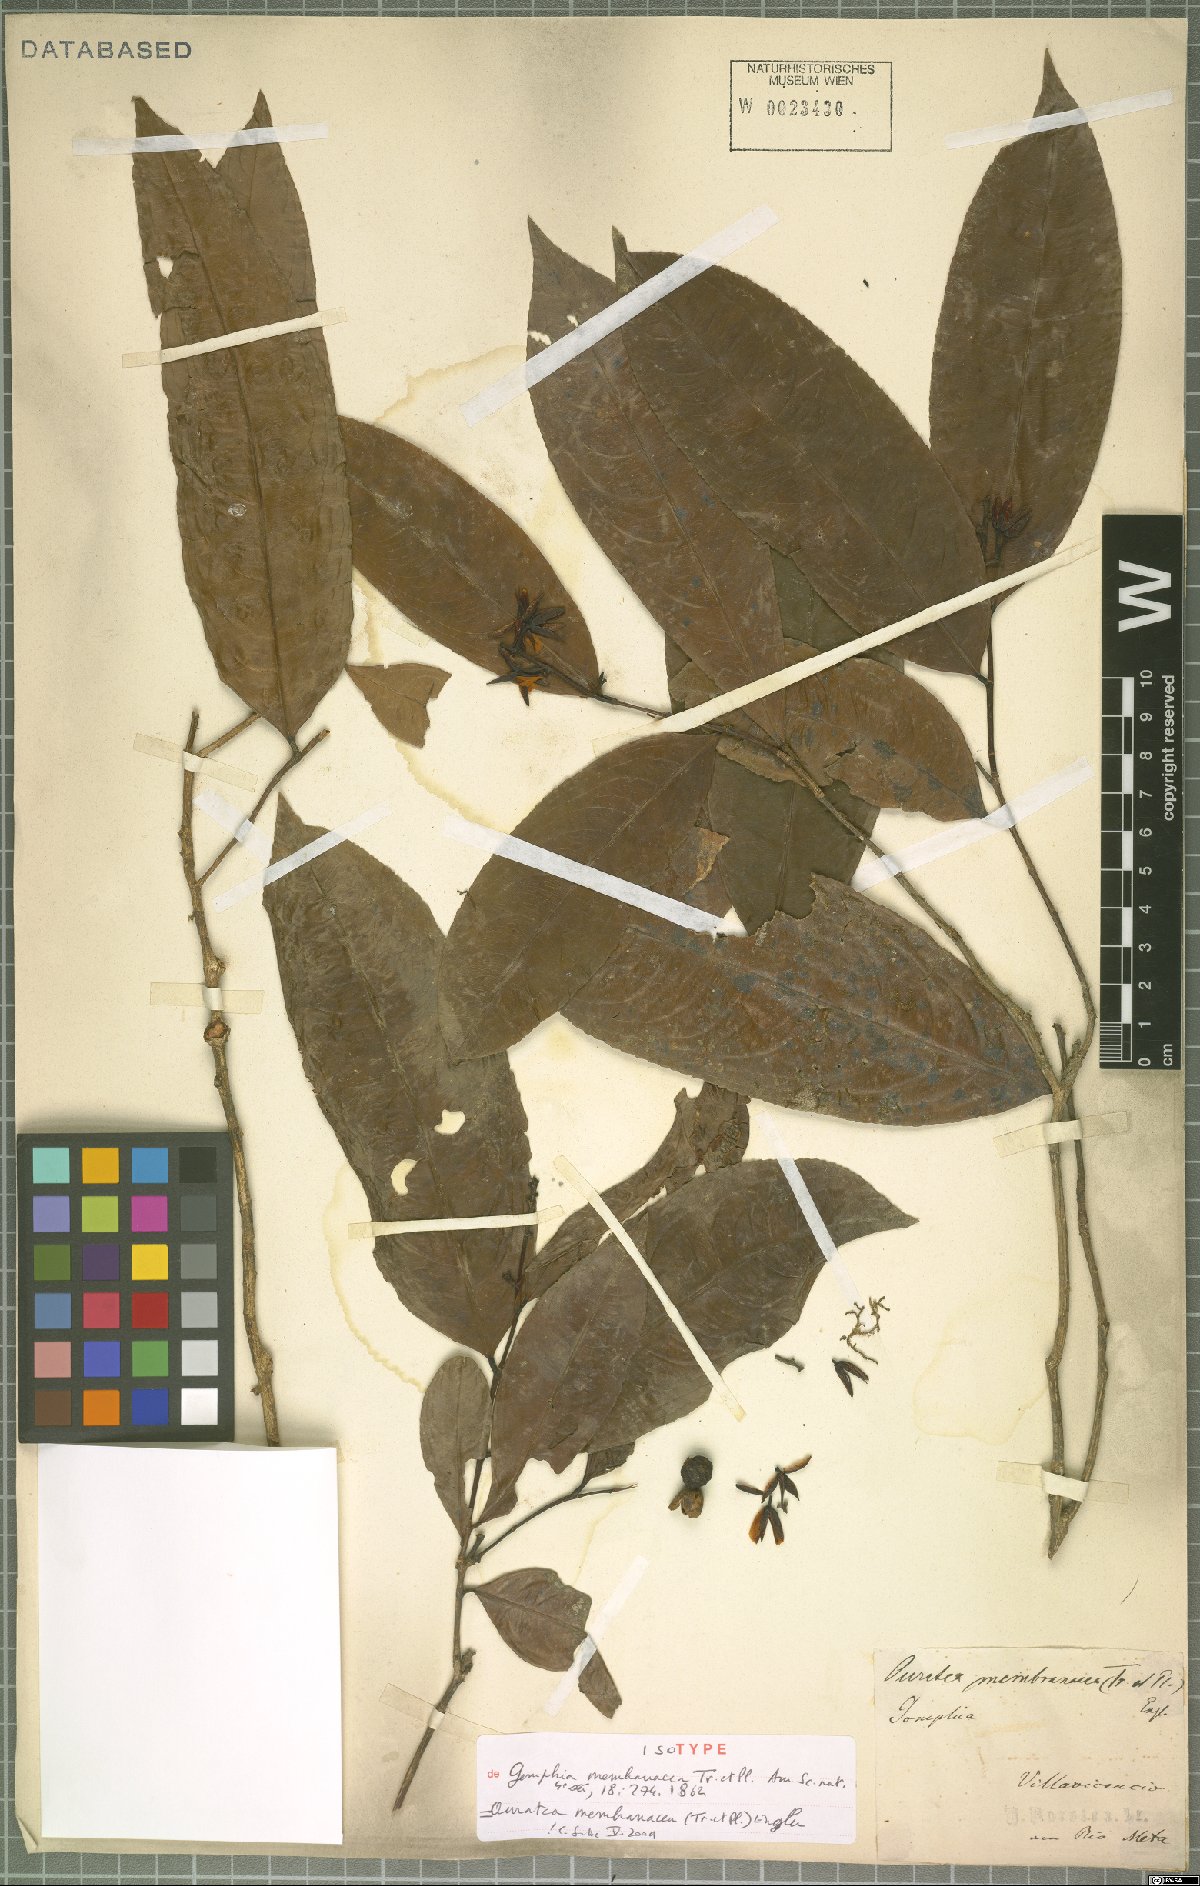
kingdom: Plantae
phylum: Tracheophyta
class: Magnoliopsida
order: Malpighiales
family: Ochnaceae
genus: Ouratea
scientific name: Ouratea membranacea
